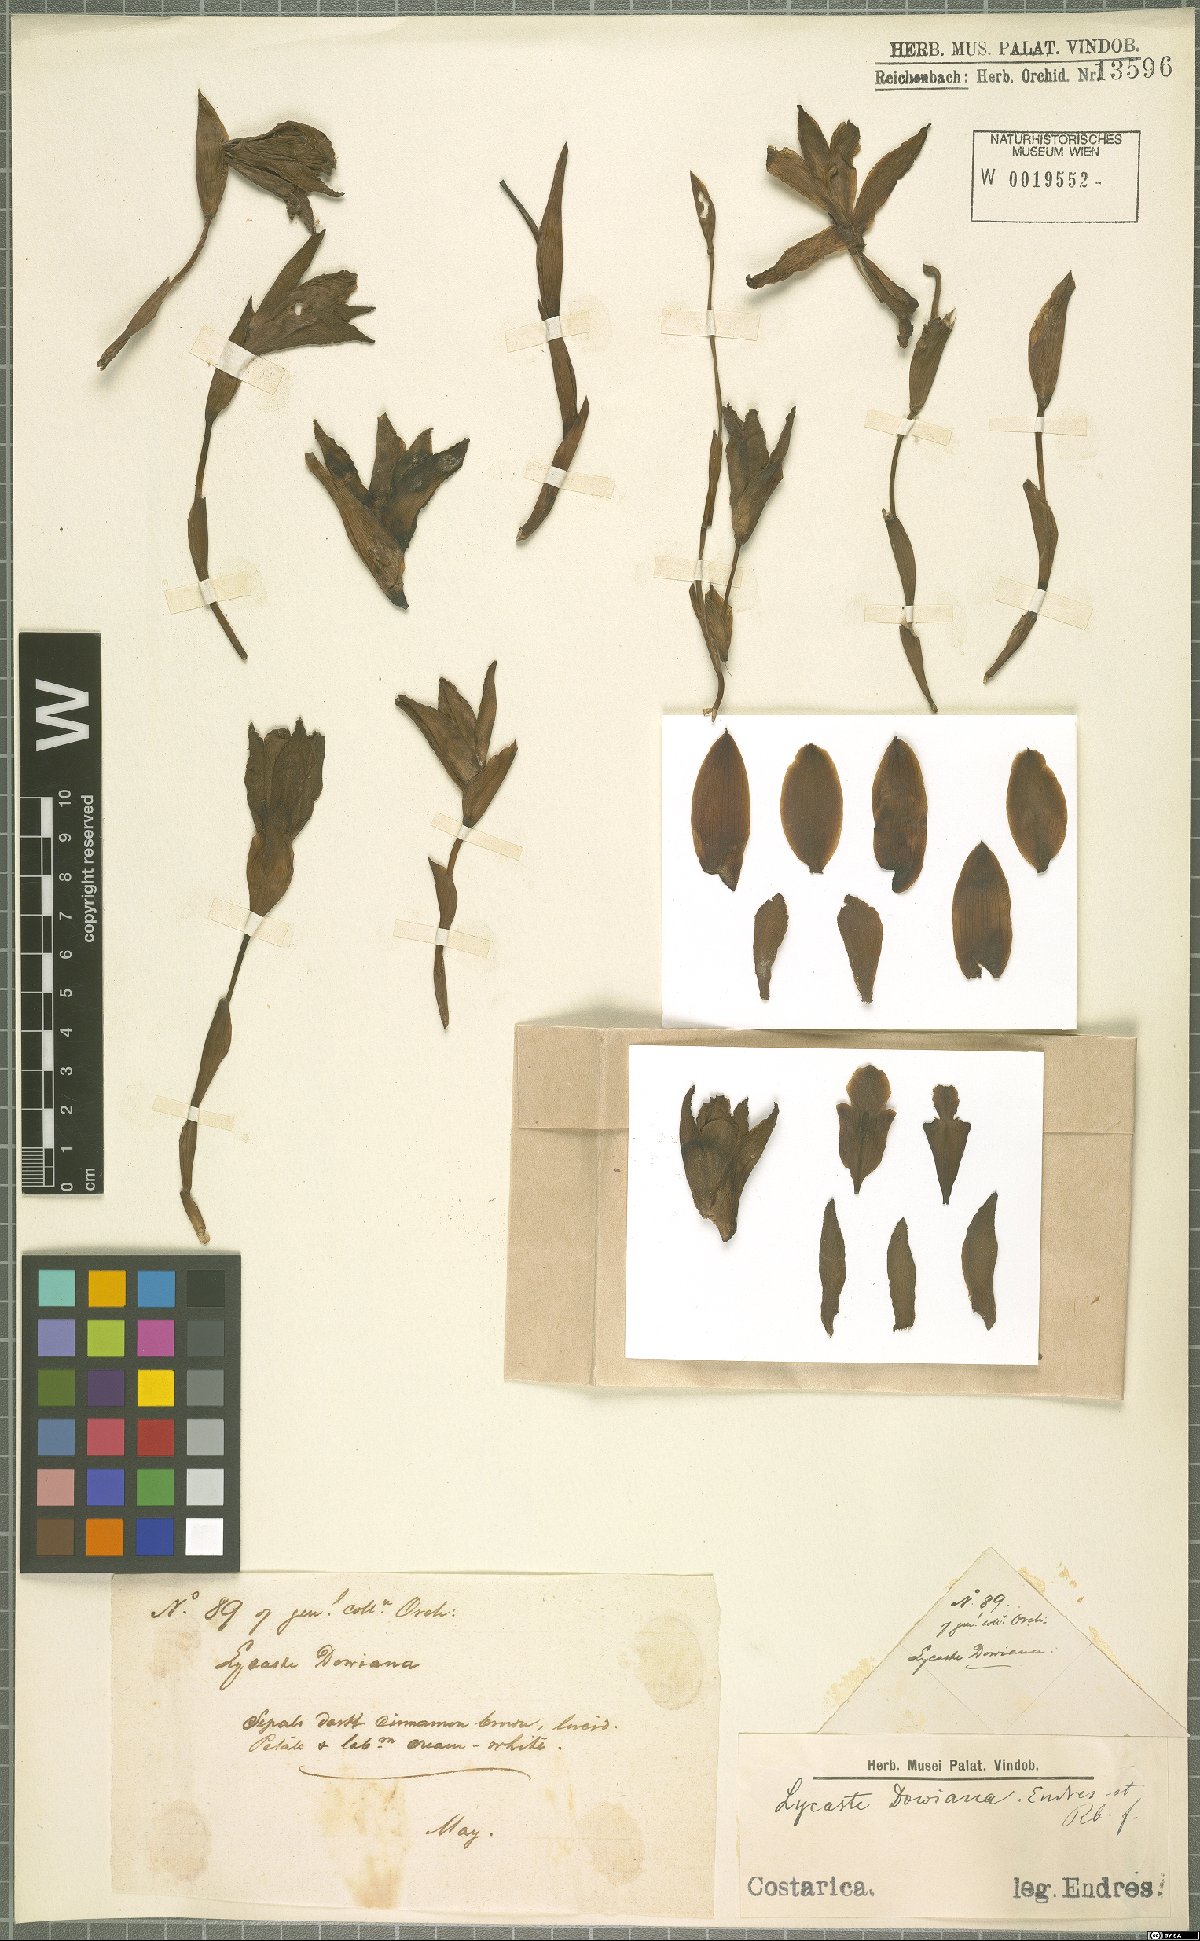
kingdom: Plantae
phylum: Tracheophyta
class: Liliopsida
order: Asparagales
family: Orchidaceae
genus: Lycaste
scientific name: Lycaste dowiana
